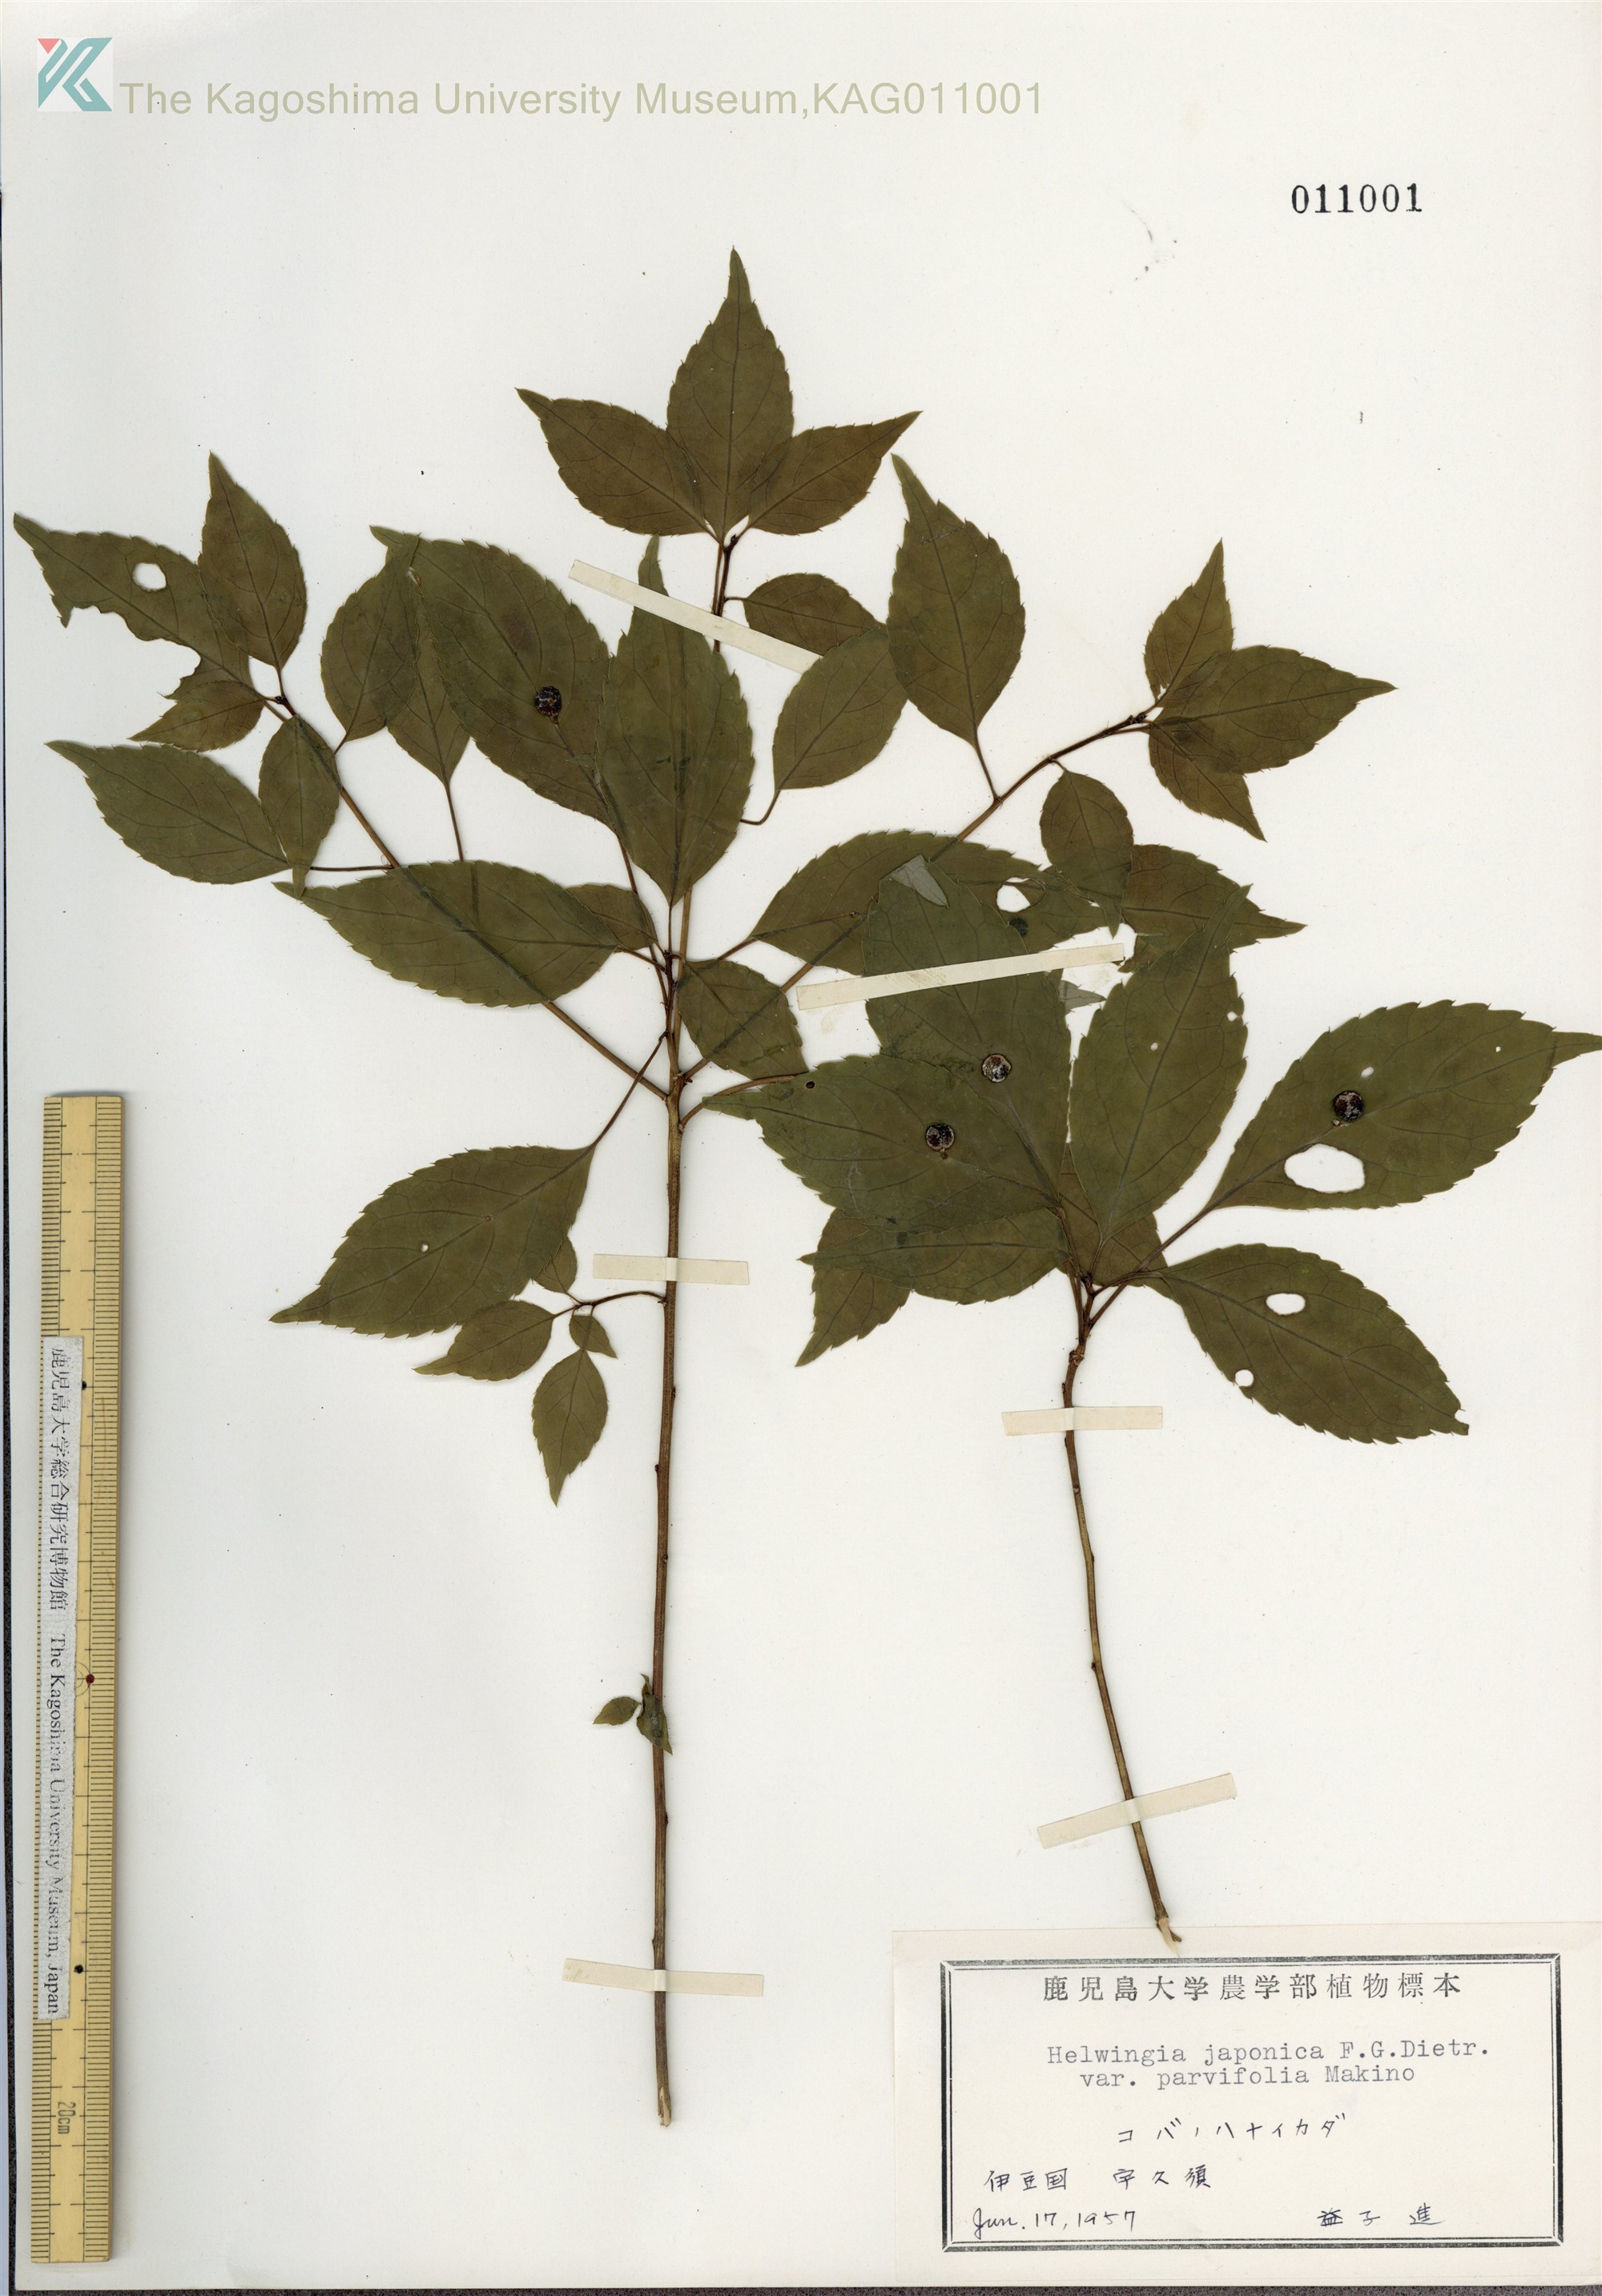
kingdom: Plantae
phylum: Tracheophyta
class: Magnoliopsida
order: Aquifoliales
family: Helwingiaceae
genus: Helwingia
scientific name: Helwingia japonica
